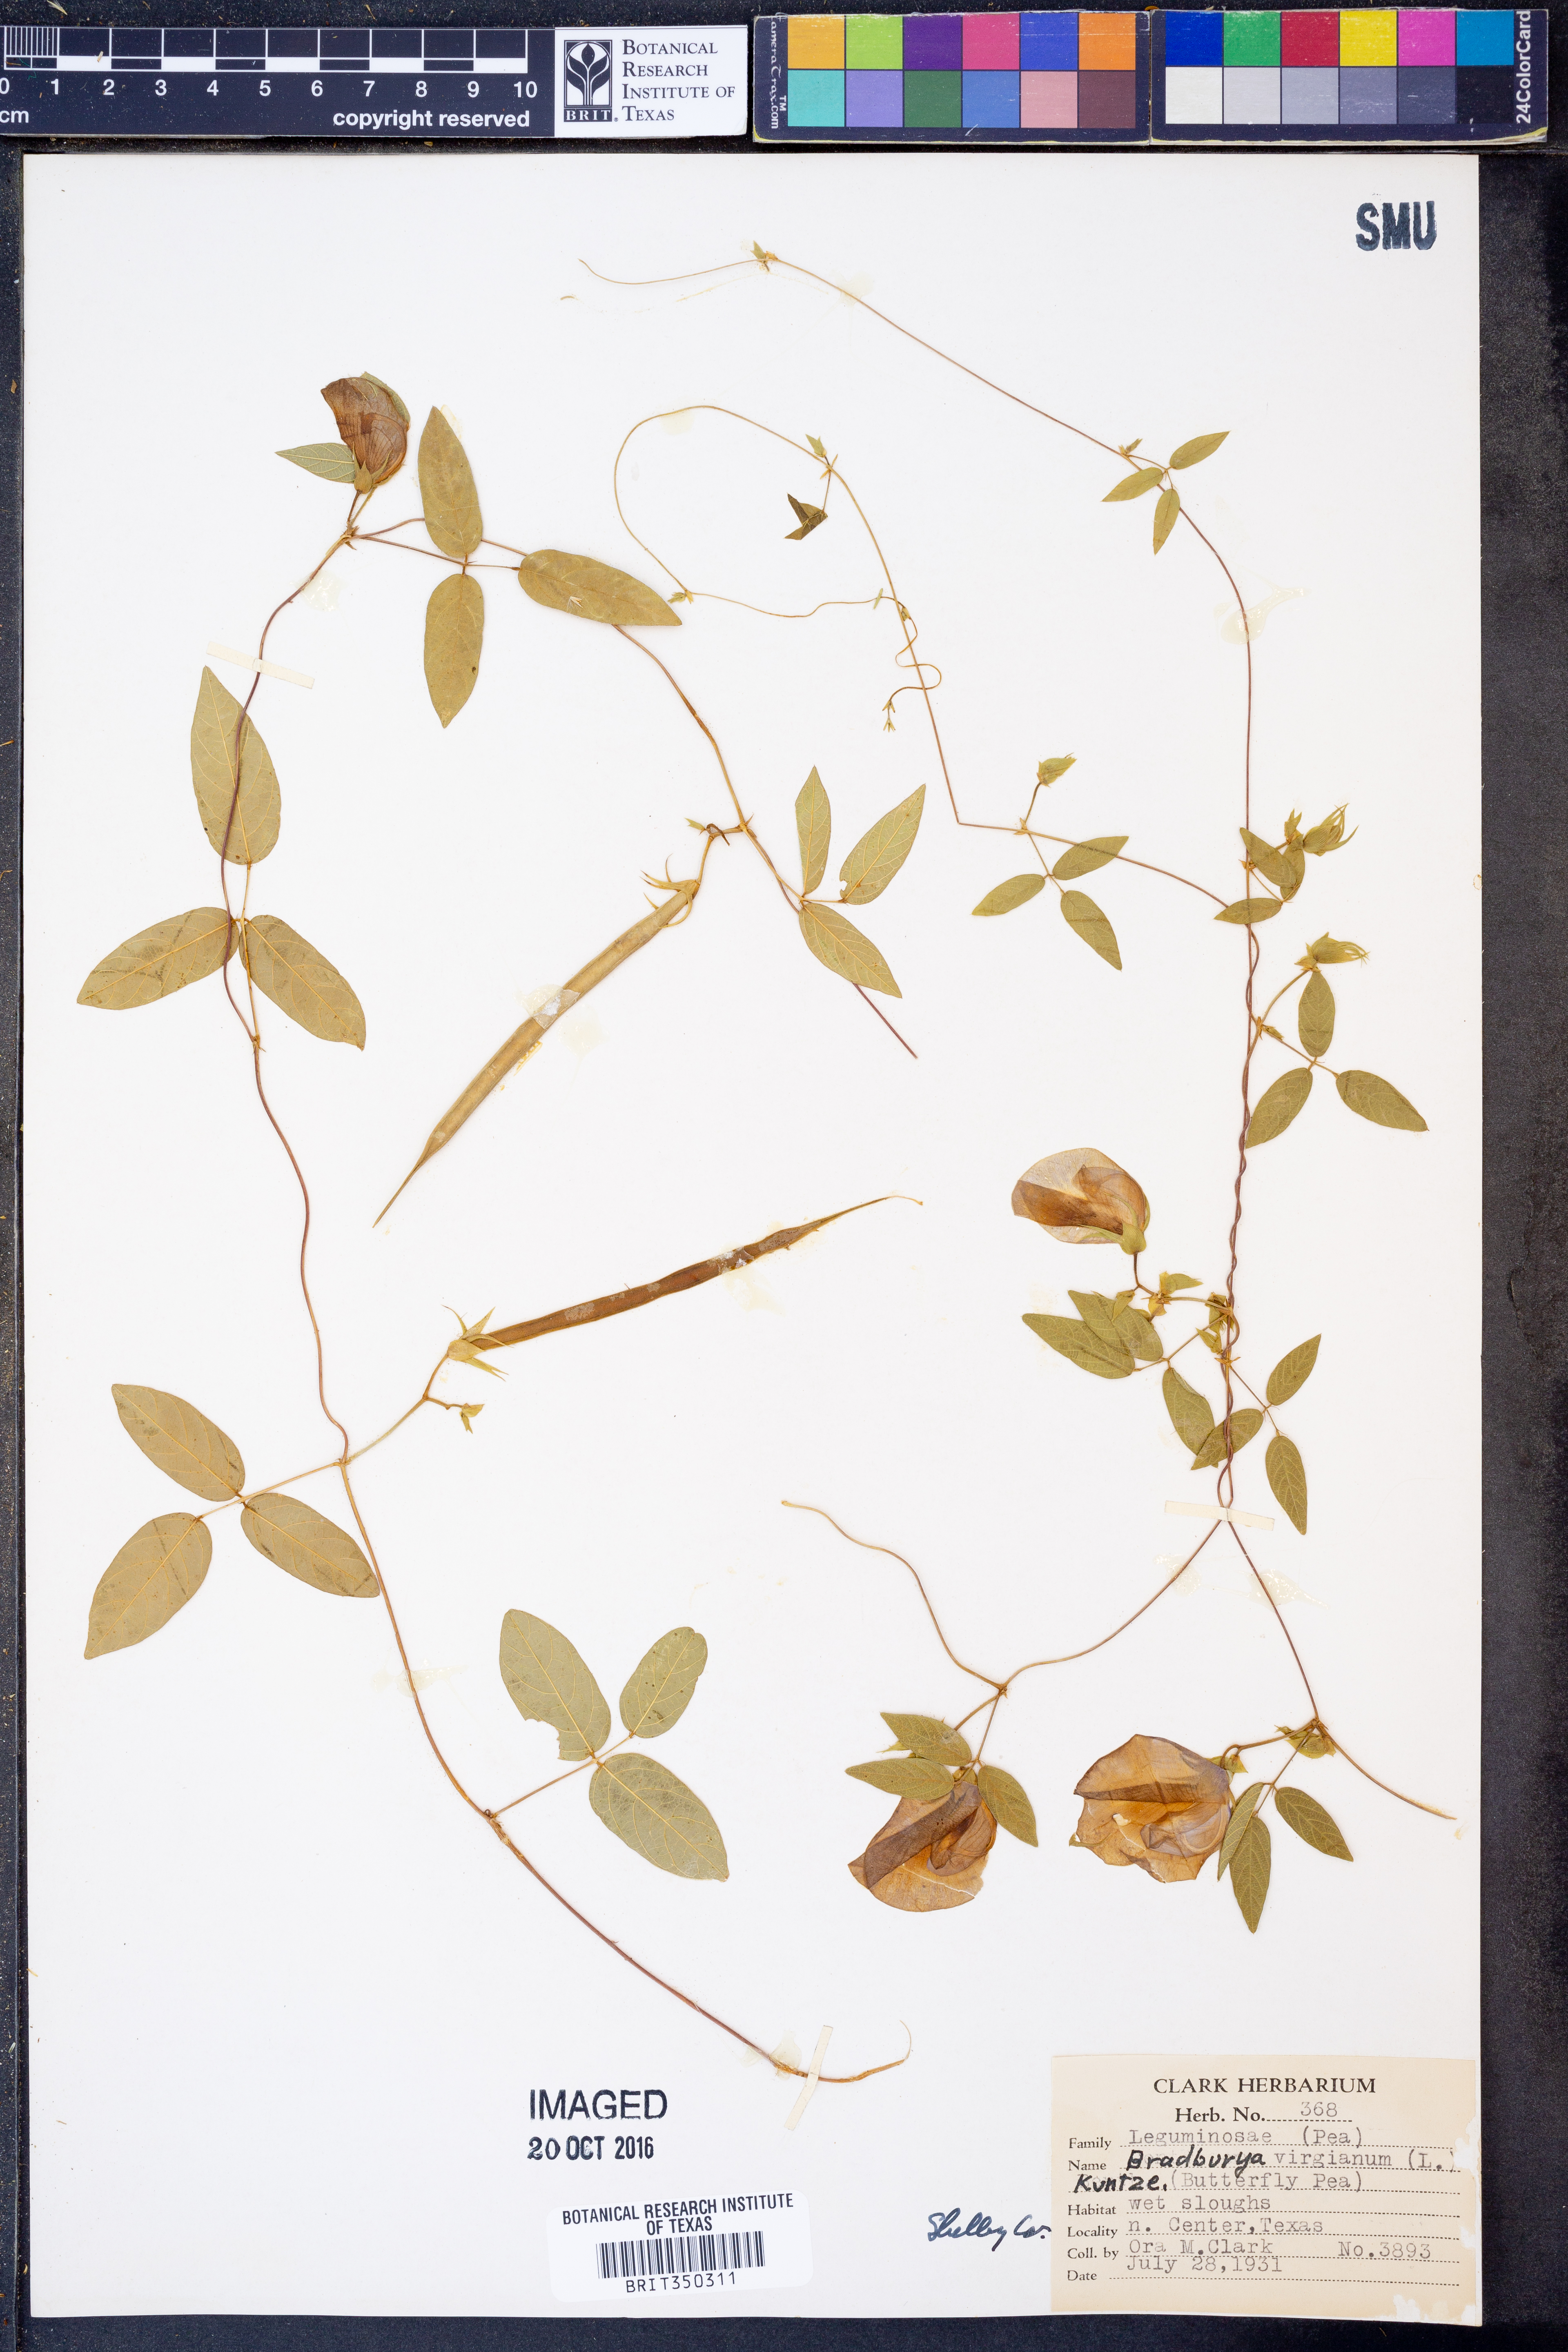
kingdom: Plantae
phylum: Tracheophyta
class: Magnoliopsida
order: Fabales
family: Fabaceae
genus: Centrosema
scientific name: Centrosema virginianum
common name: Butterfly-pea
